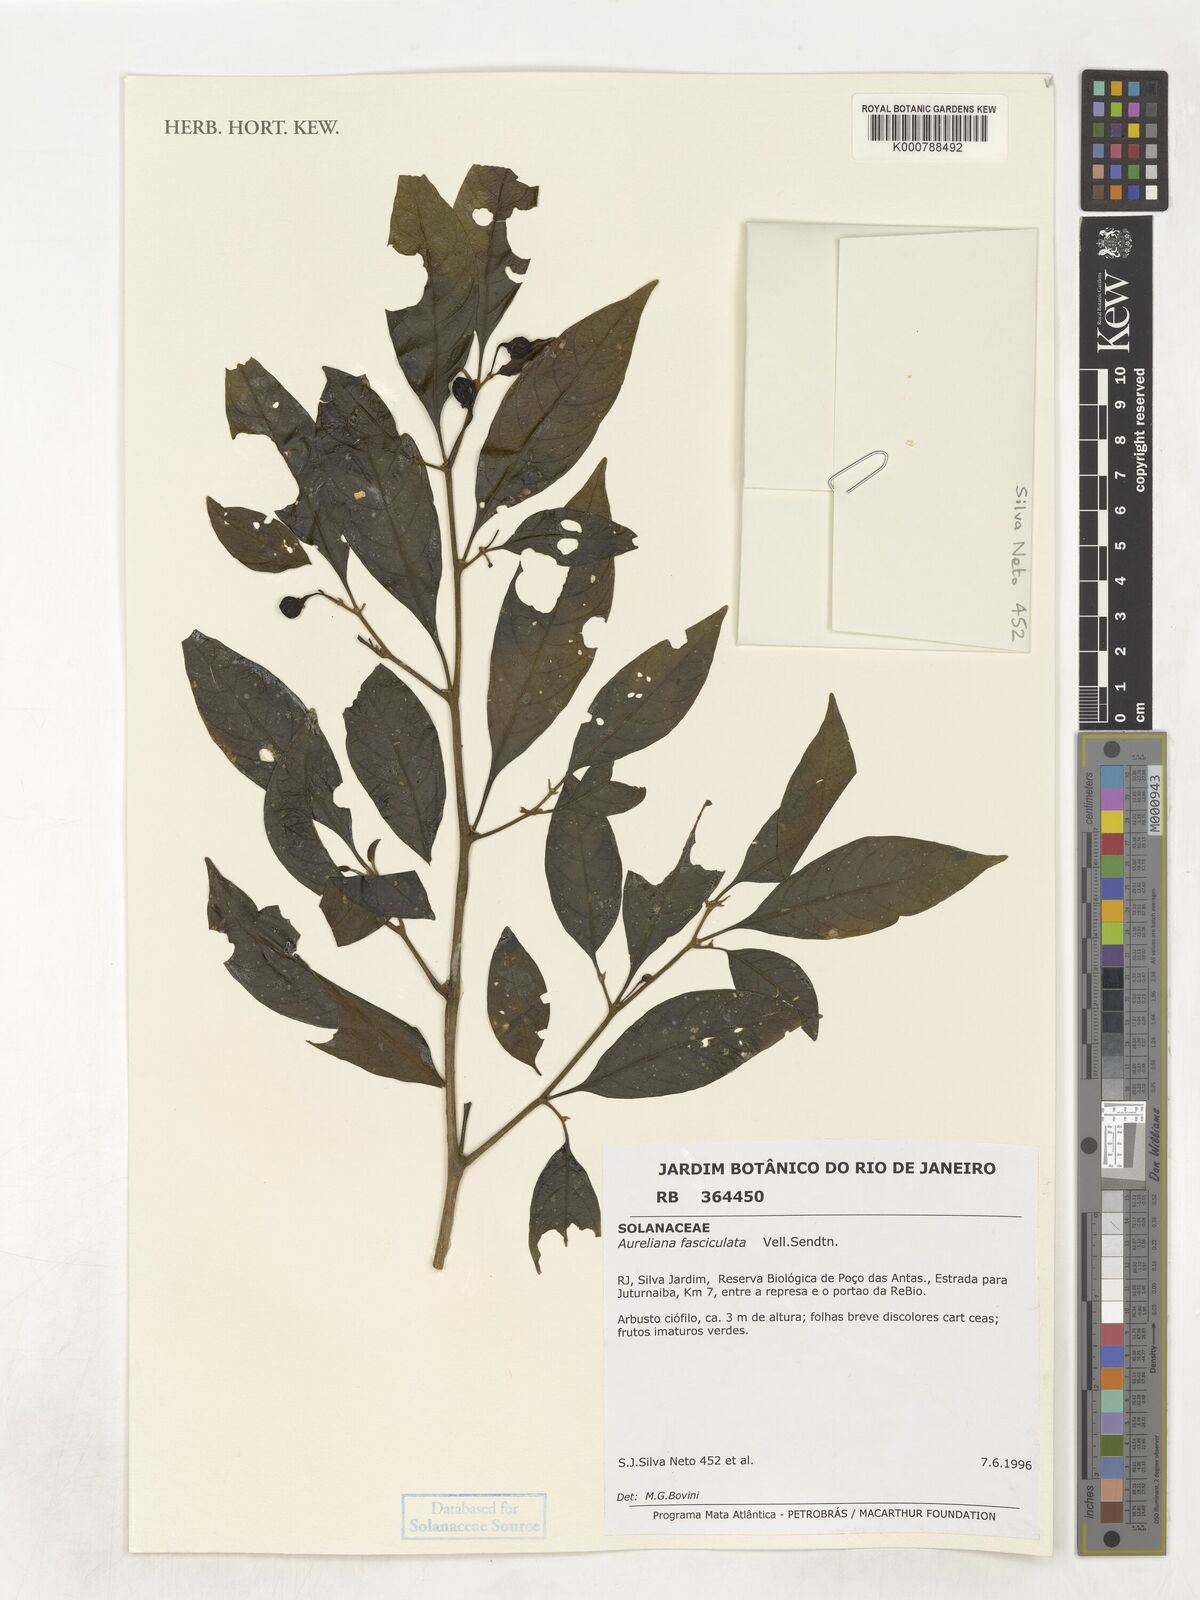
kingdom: Plantae
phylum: Tracheophyta
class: Magnoliopsida
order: Solanales
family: Solanaceae
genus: Athenaea
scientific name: Athenaea fasciculata
